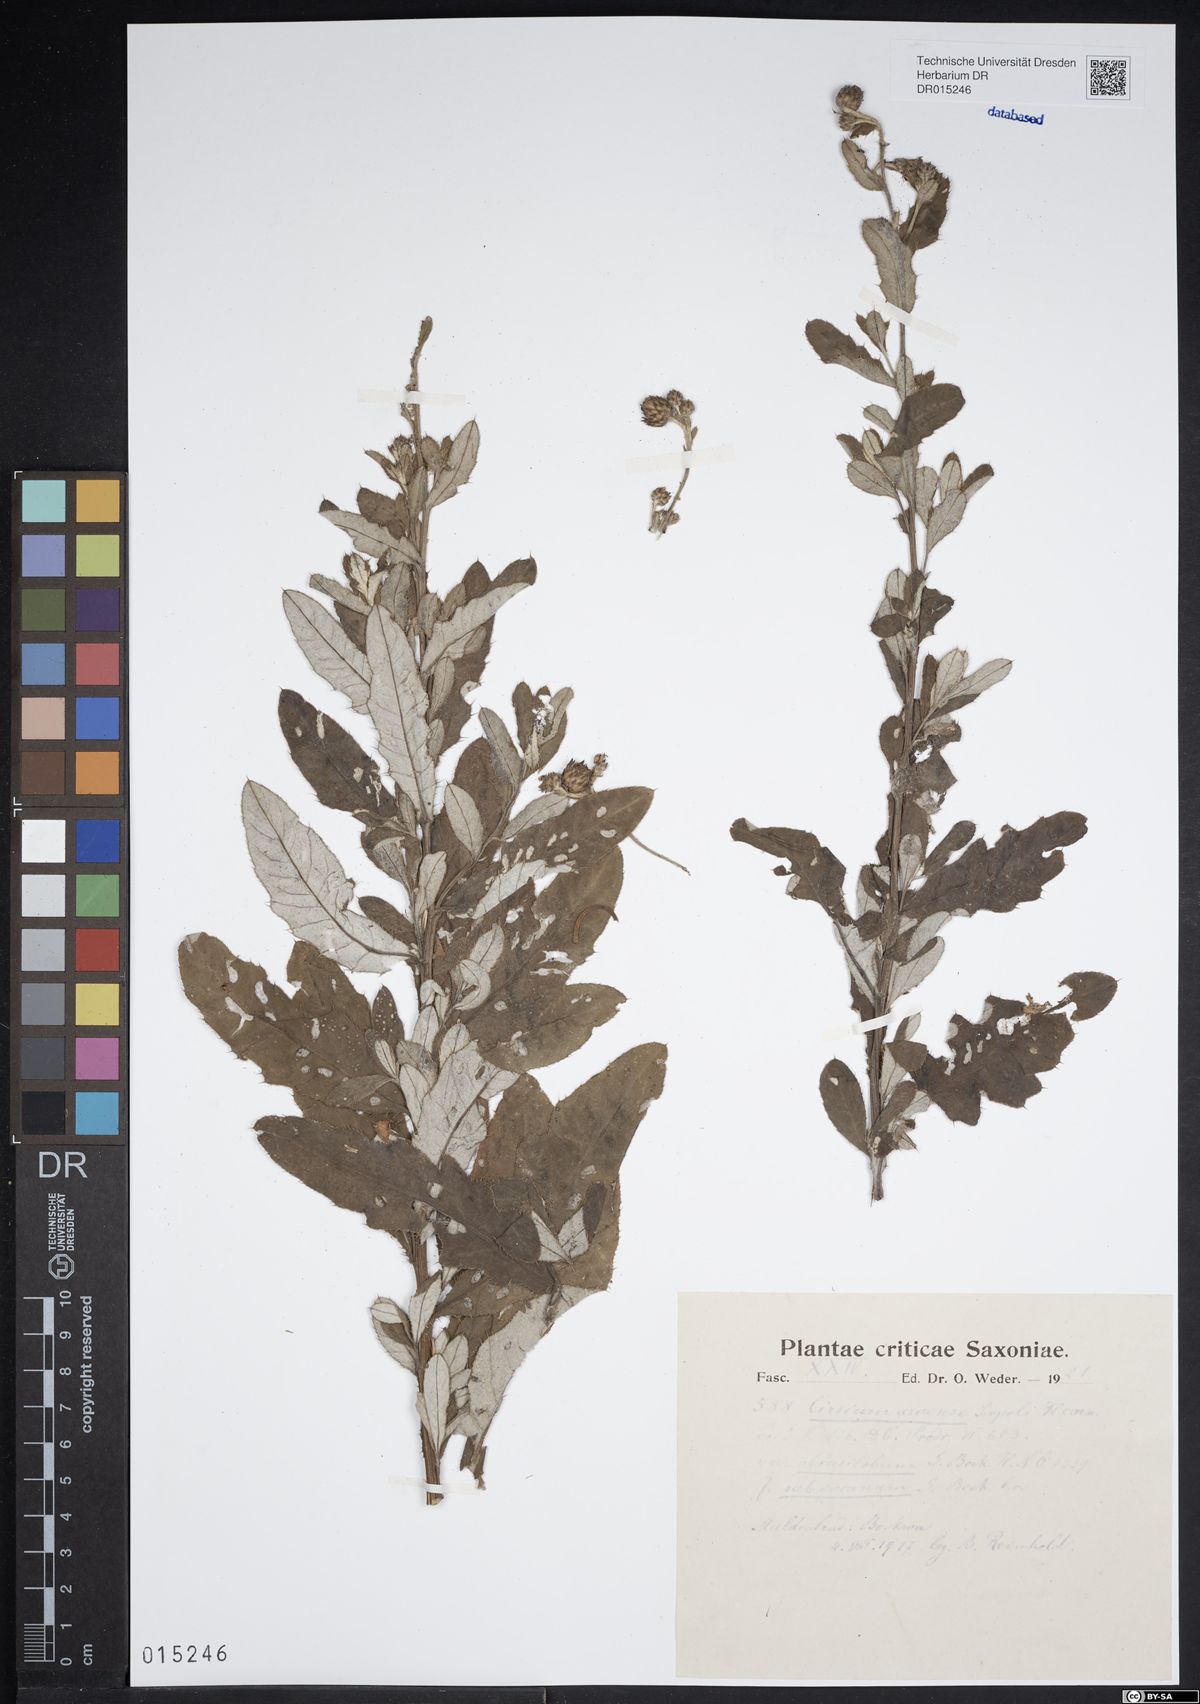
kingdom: Plantae
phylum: Tracheophyta
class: Magnoliopsida
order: Asterales
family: Asteraceae
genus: Cirsium
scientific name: Cirsium arvense
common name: Creeping thistle
